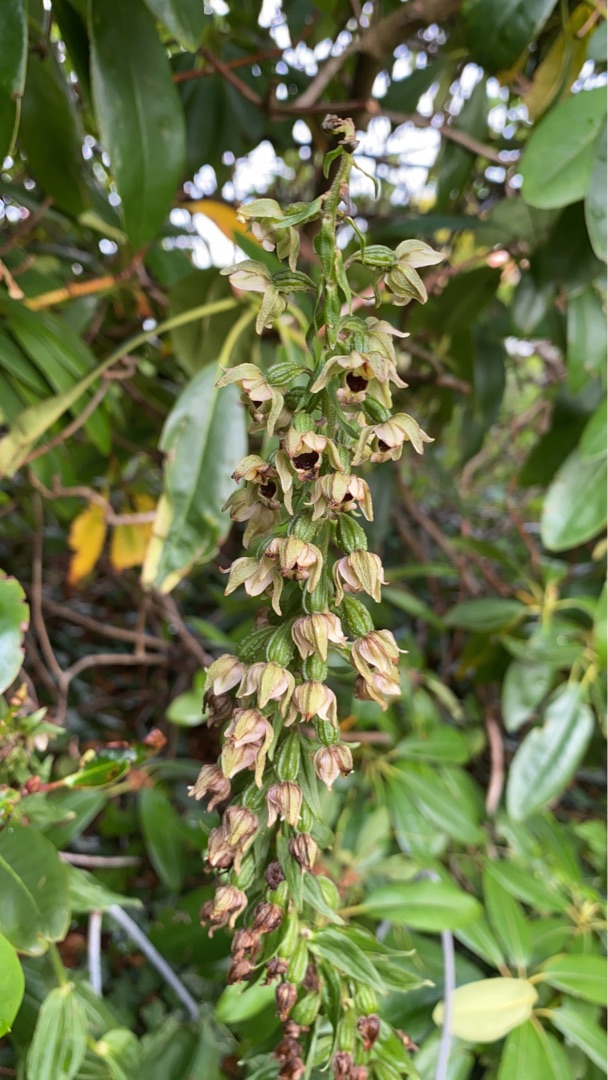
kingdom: Plantae
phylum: Tracheophyta
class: Liliopsida
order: Asparagales
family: Orchidaceae
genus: Epipactis
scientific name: Epipactis helleborine
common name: Skov-hullæbe
